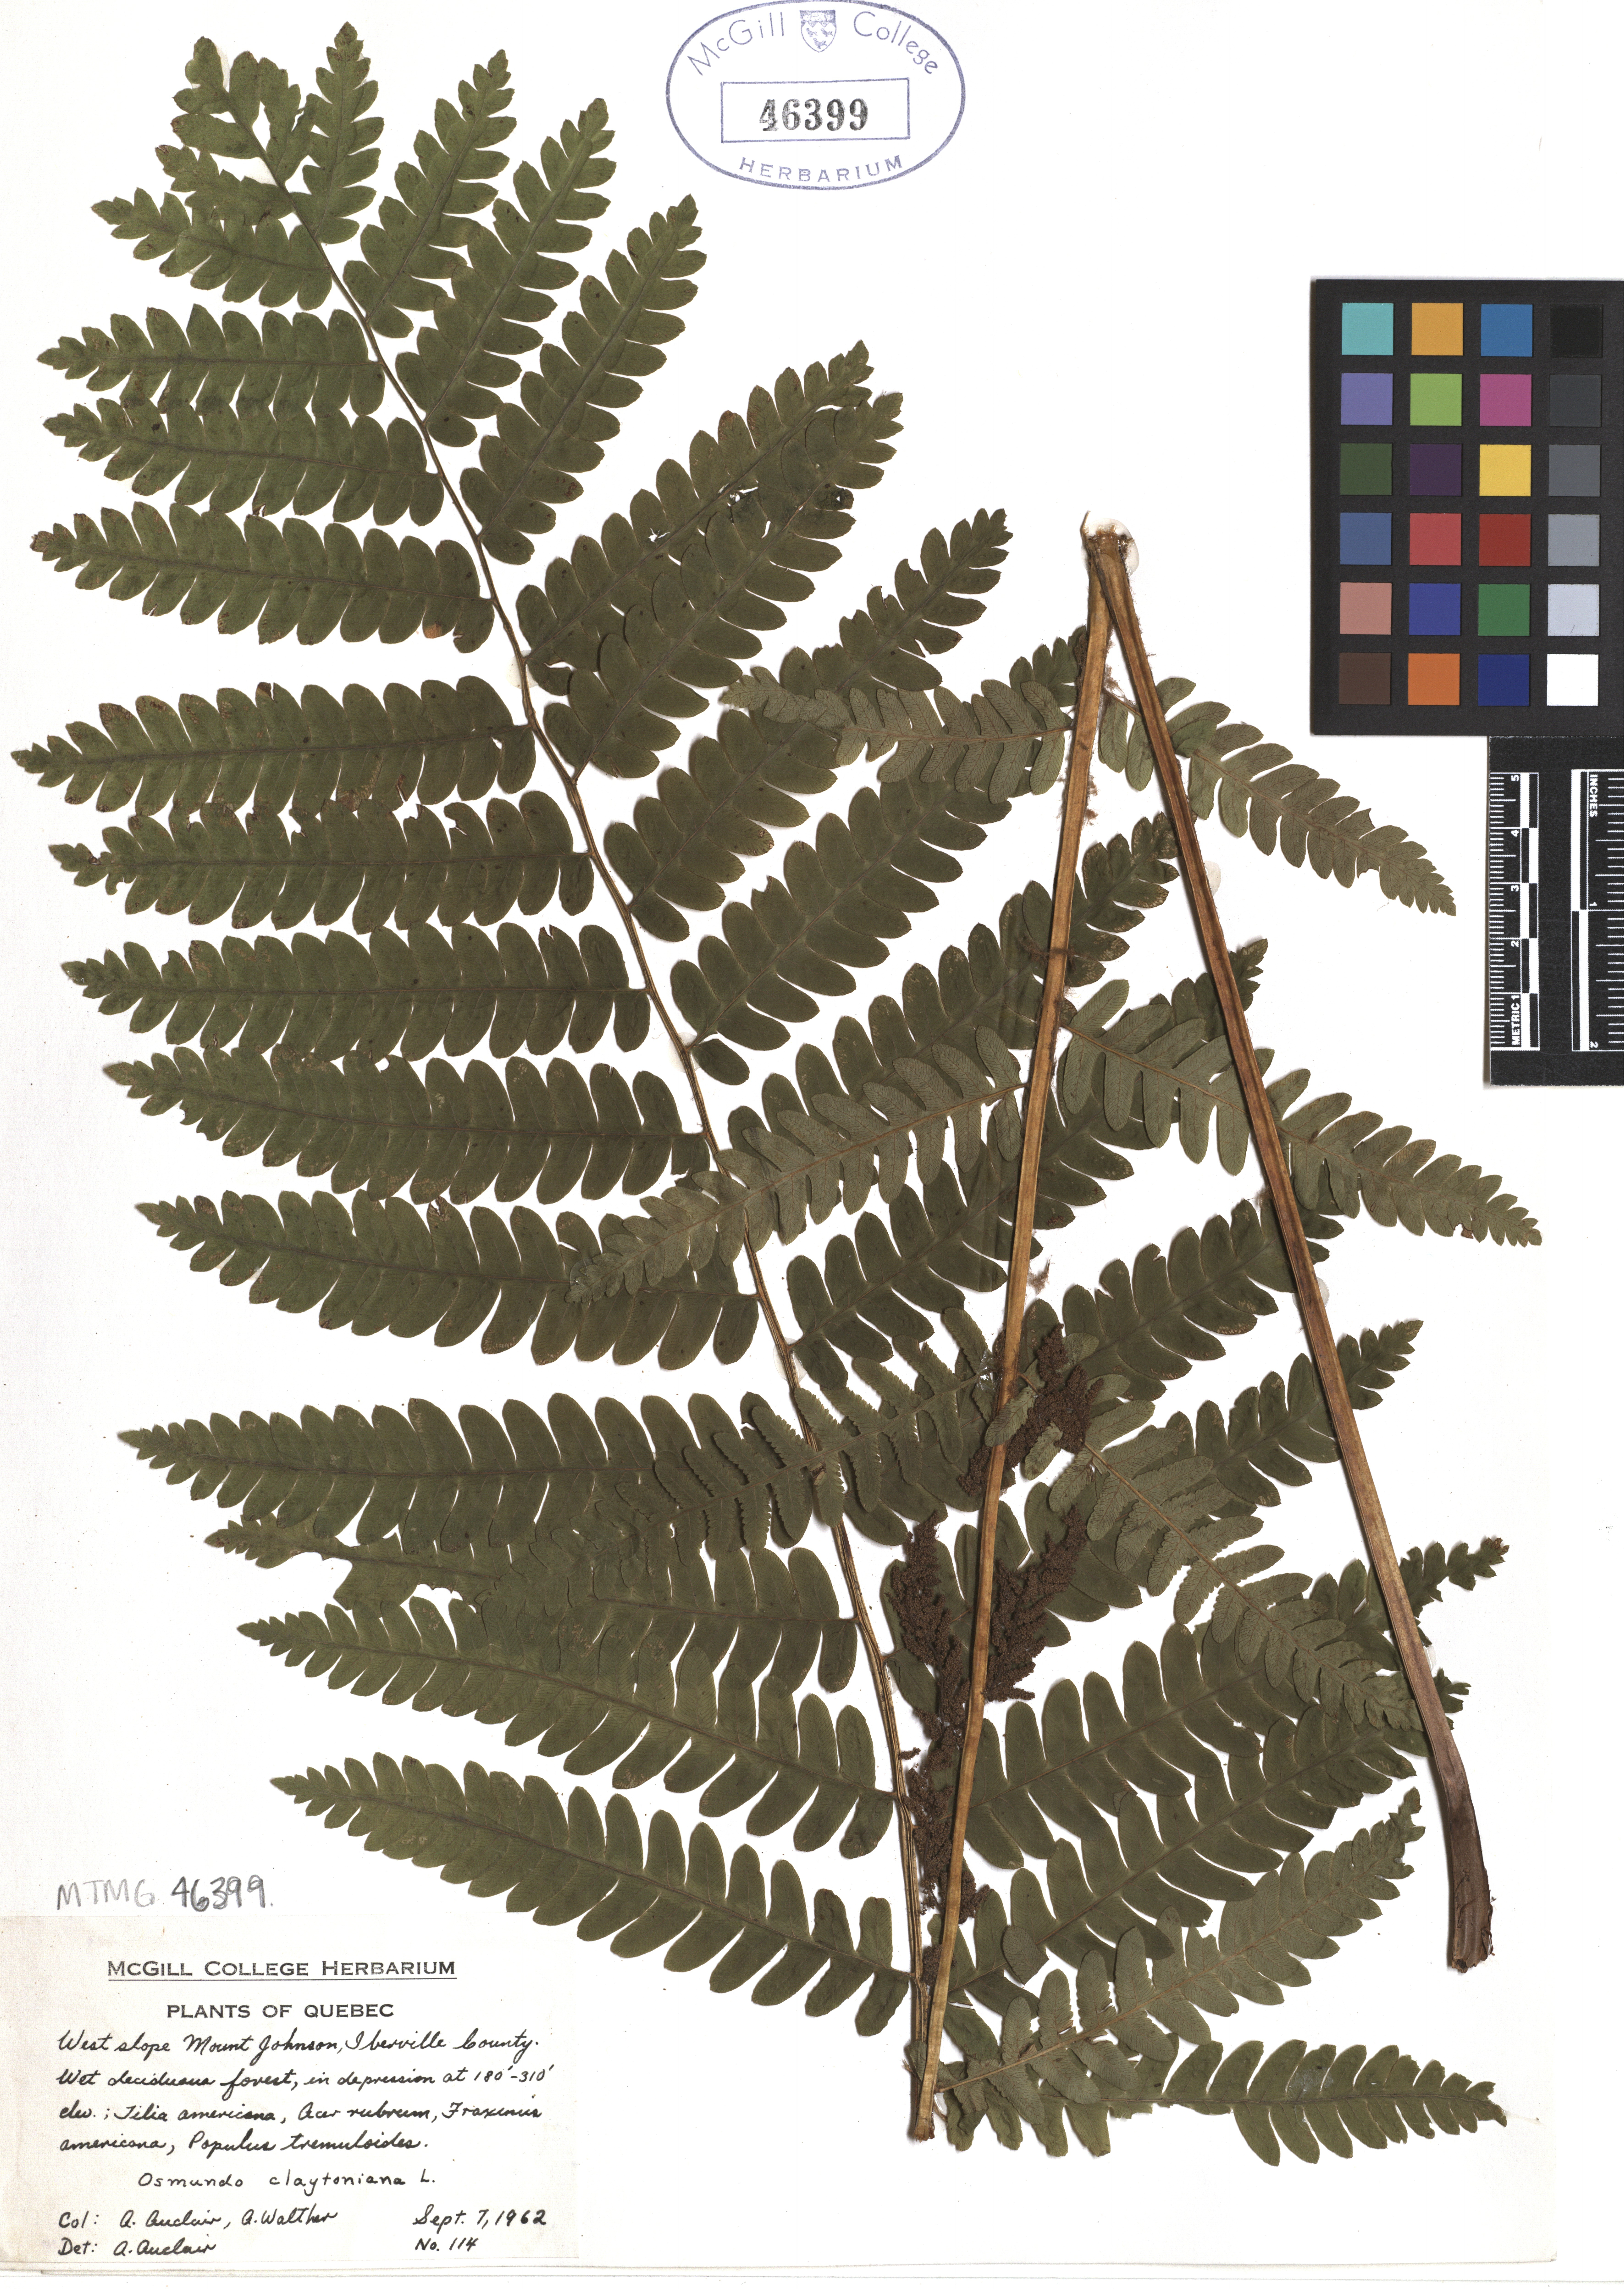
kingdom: Plantae
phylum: Tracheophyta
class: Polypodiopsida
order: Osmundales
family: Osmundaceae
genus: Claytosmunda
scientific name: Claytosmunda claytoniana
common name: Clayton's fern
